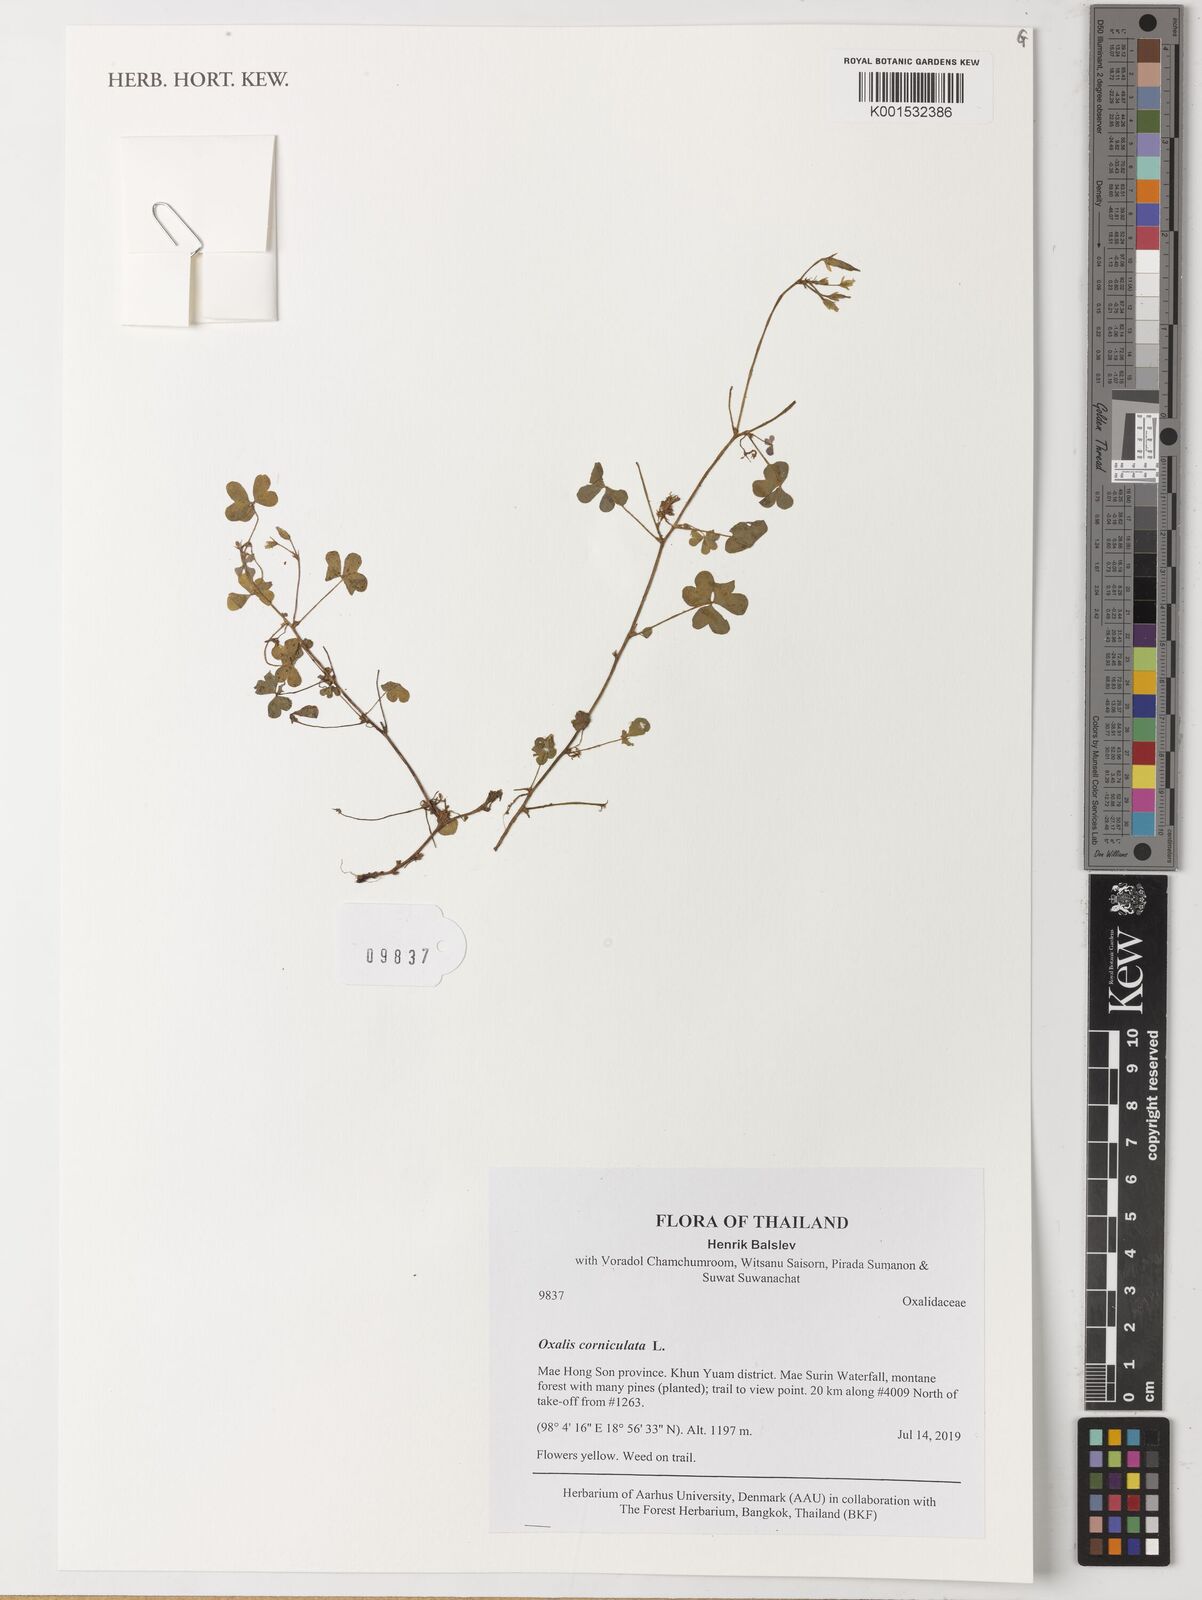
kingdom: Plantae
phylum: Tracheophyta
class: Magnoliopsida
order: Oxalidales
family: Oxalidaceae
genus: Oxalis
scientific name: Oxalis corniculata
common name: Procumbent yellow-sorrel
